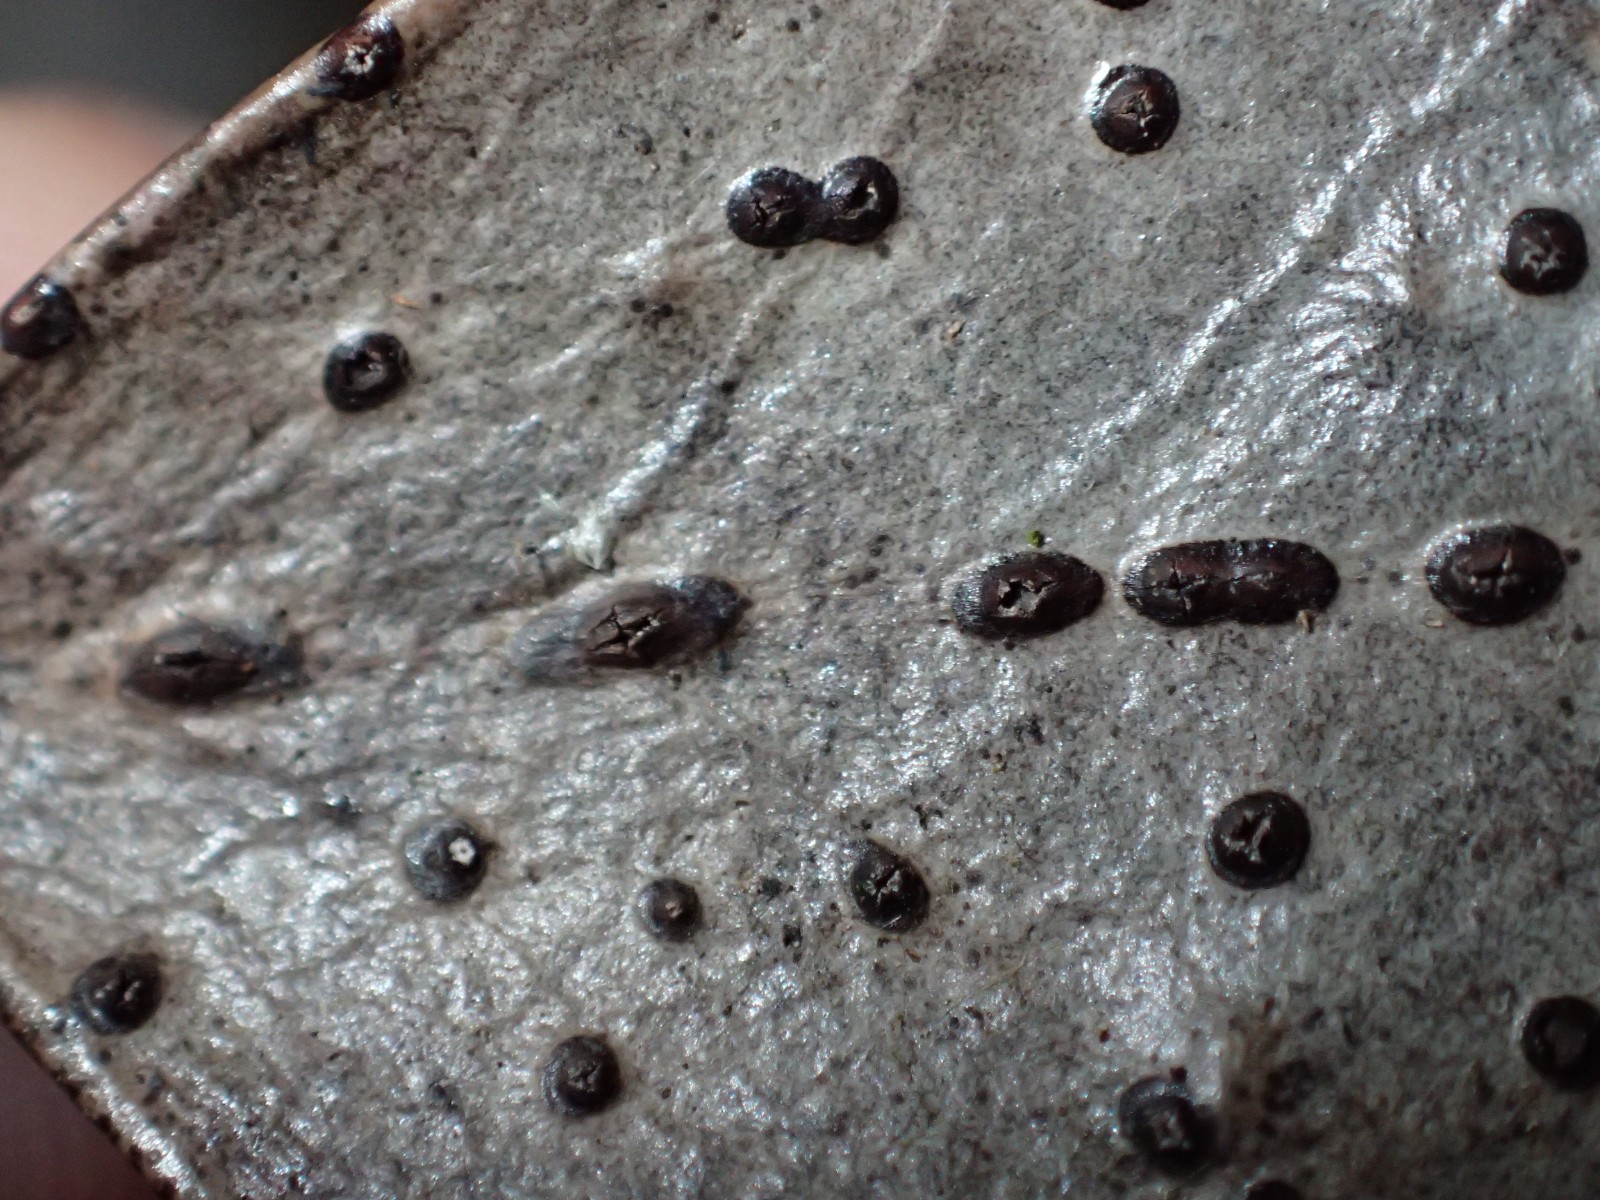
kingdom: Fungi
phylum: Ascomycota
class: Leotiomycetes
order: Phacidiales
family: Phacidiaceae
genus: Phacidium
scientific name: Phacidium lauri
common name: kristtorn-tandskive
